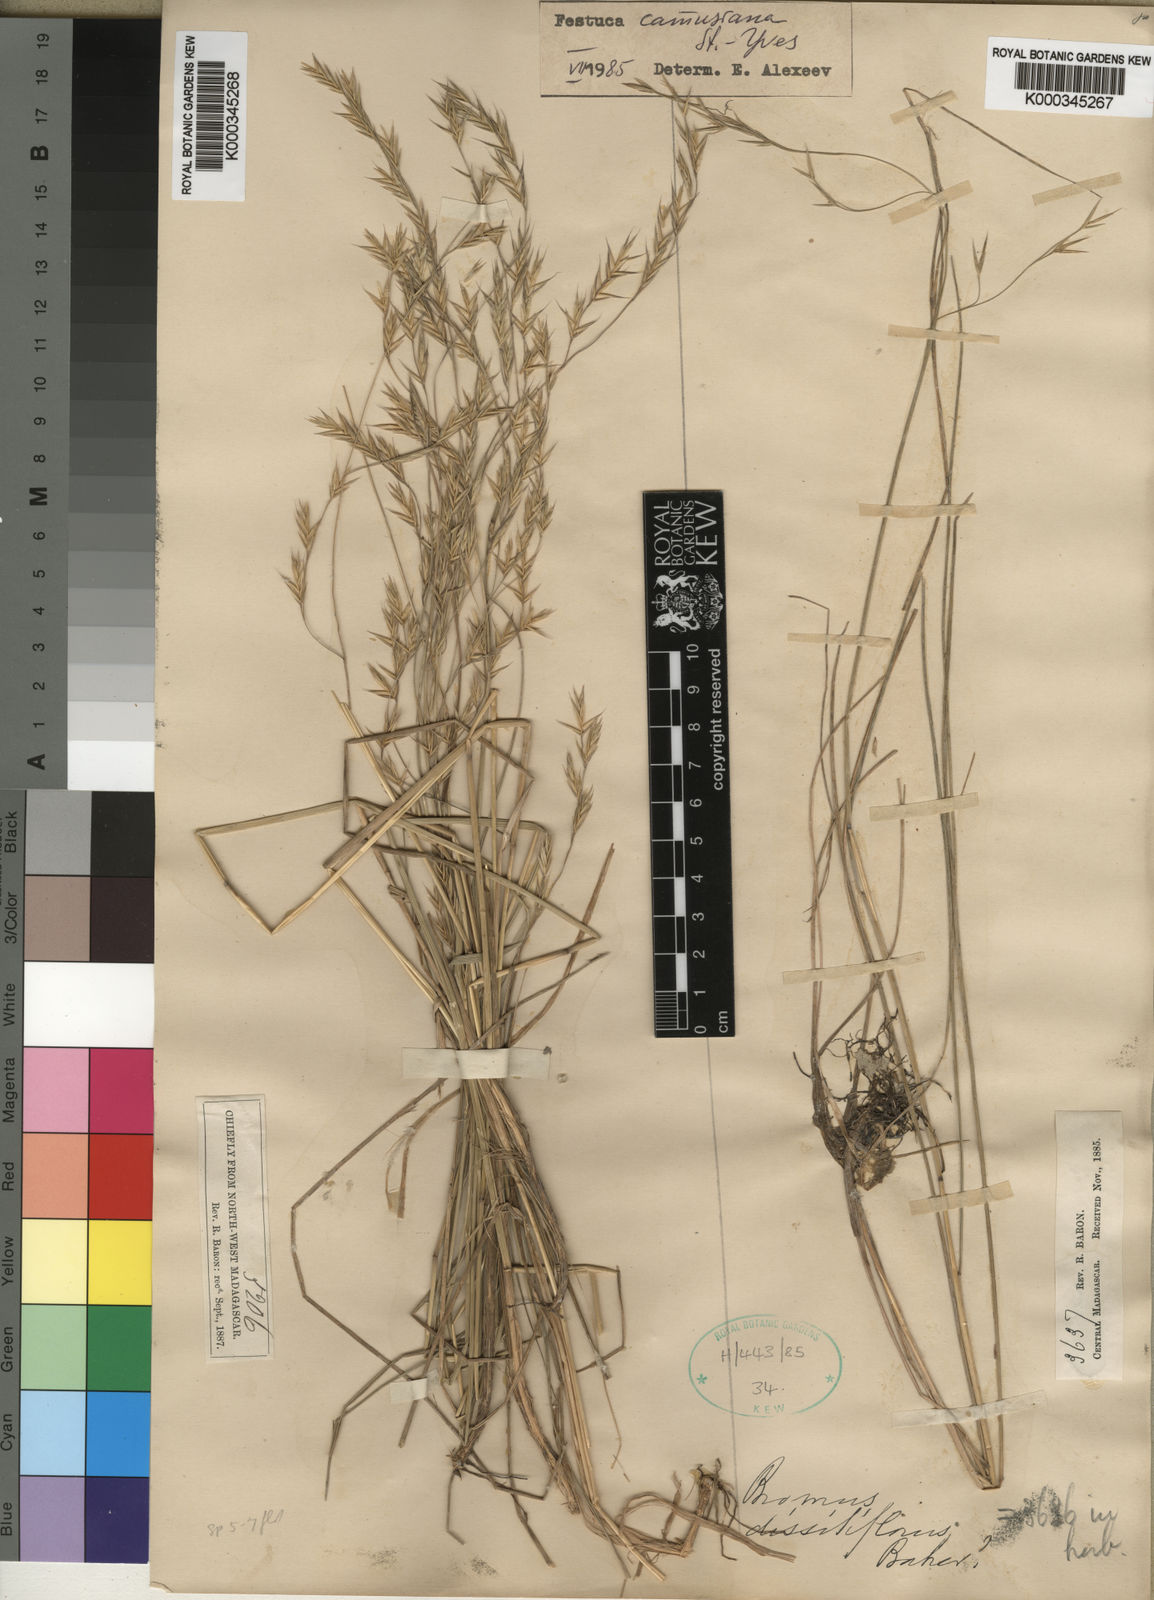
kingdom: Plantae
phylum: Tracheophyta
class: Liliopsida
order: Poales
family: Poaceae
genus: Festuca
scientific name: Festuca camusiana
